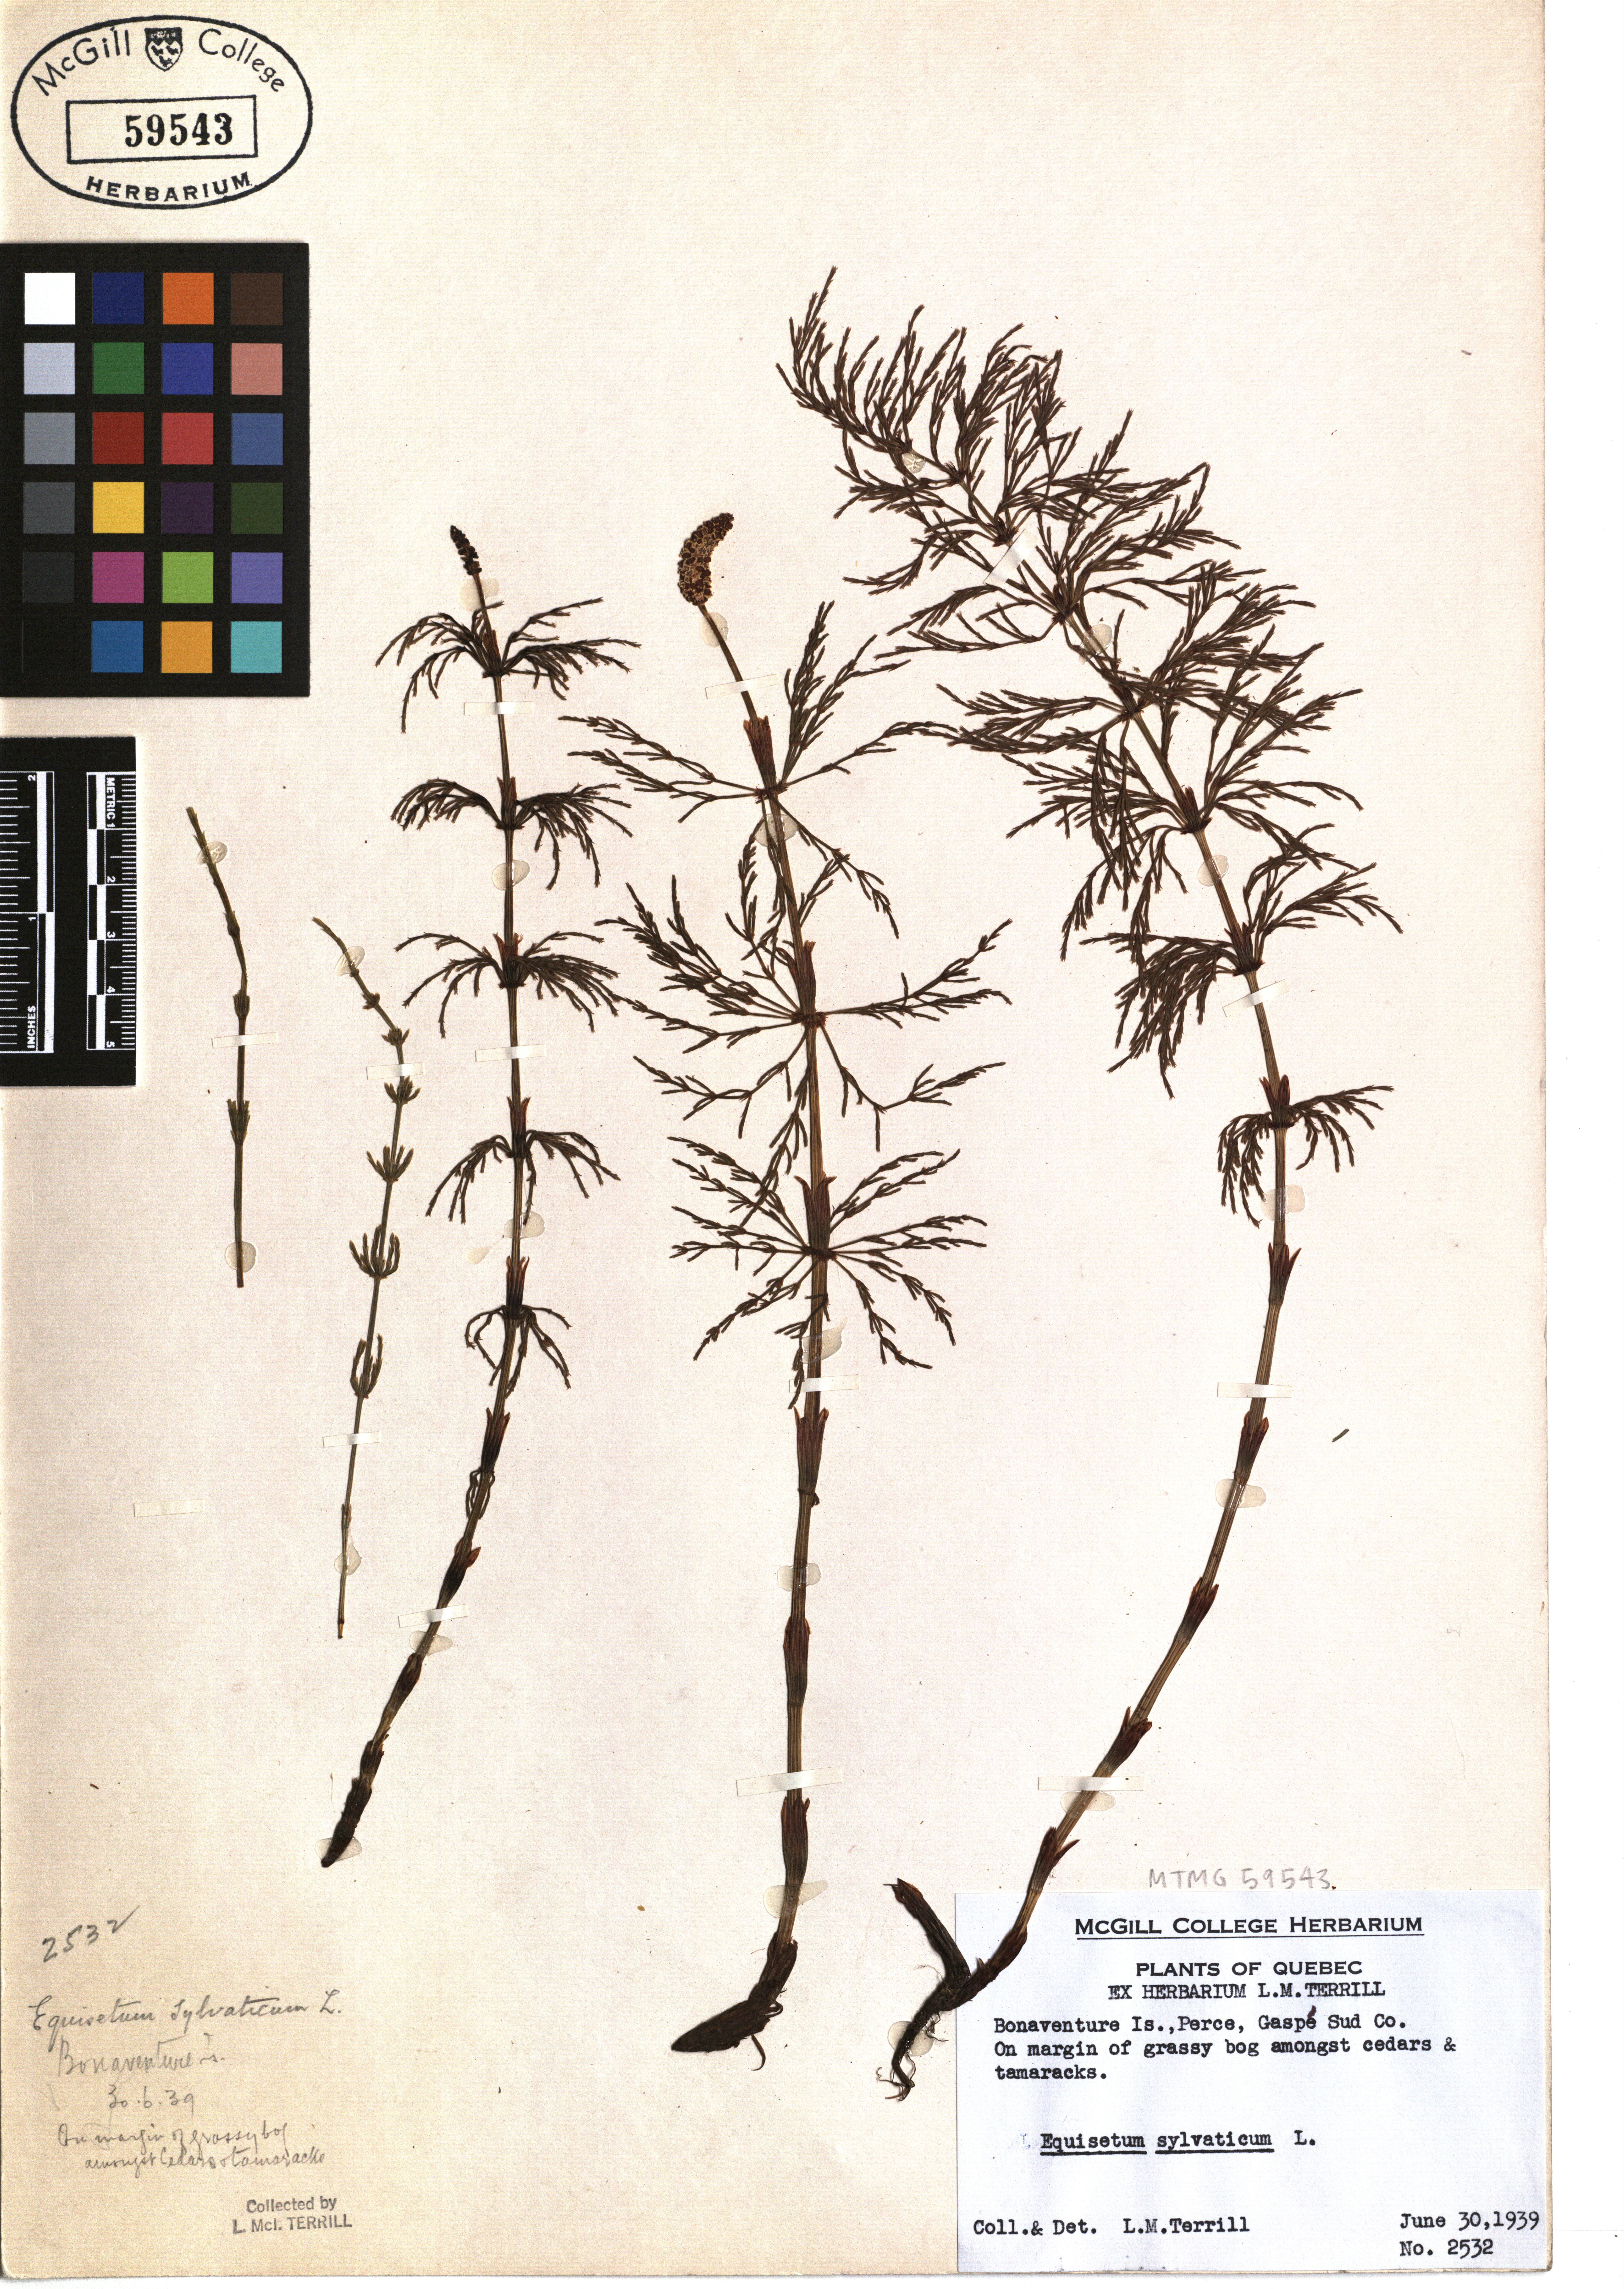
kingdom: Plantae
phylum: Tracheophyta
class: Polypodiopsida
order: Equisetales
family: Equisetaceae
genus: Equisetum
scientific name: Equisetum sylvaticum
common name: Wood horsetail
